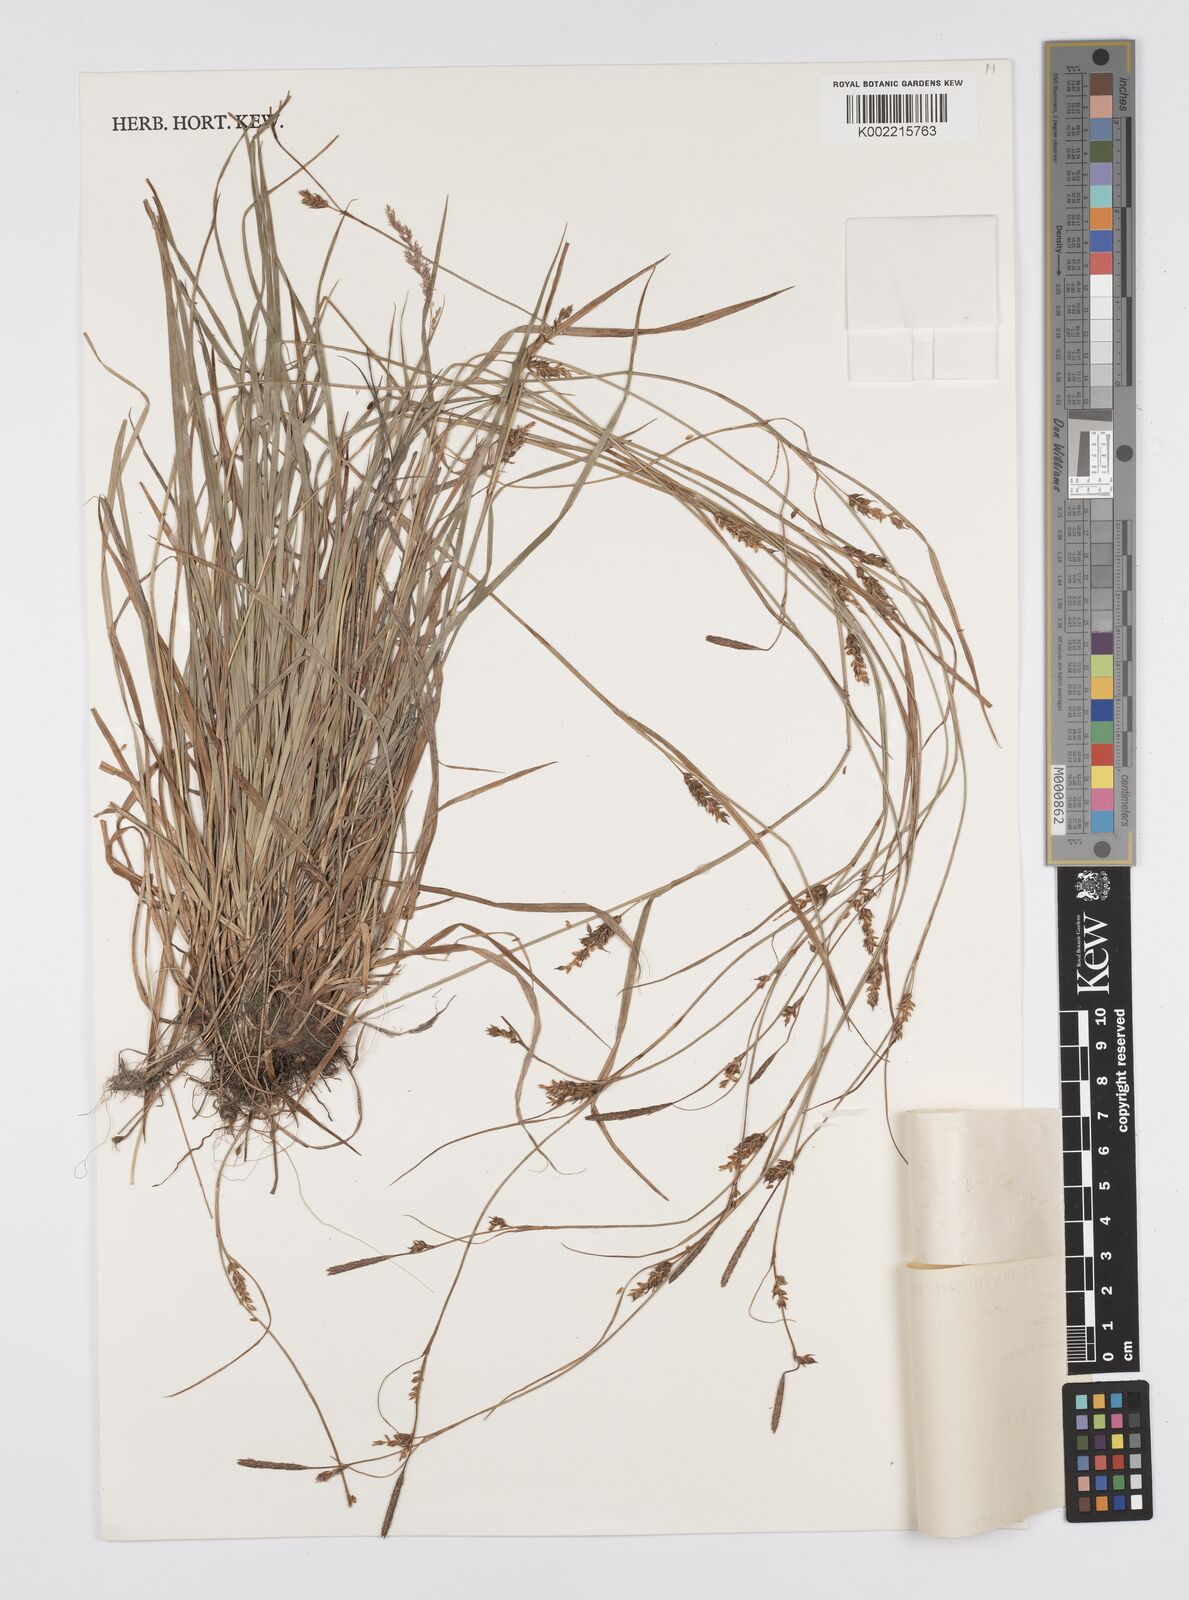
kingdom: Plantae
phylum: Tracheophyta
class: Liliopsida
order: Poales
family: Cyperaceae
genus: Carex
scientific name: Carex
